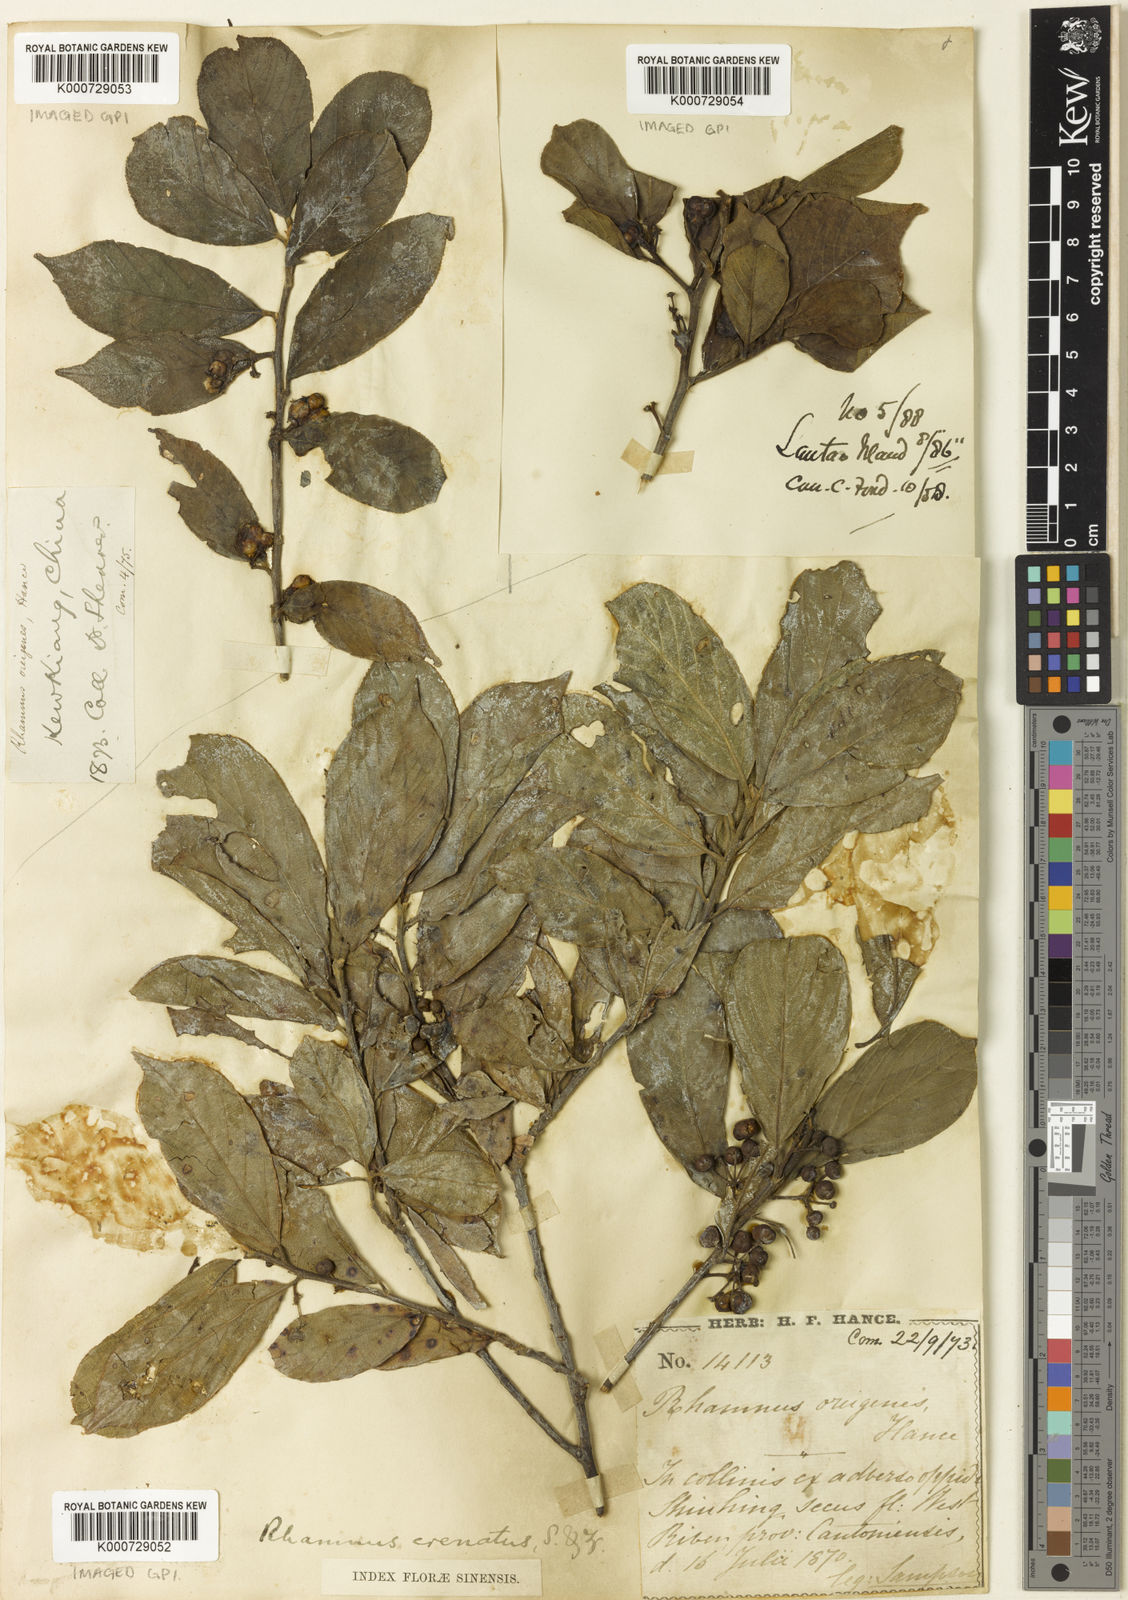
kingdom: Plantae
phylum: Tracheophyta
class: Magnoliopsida
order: Rosales
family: Rhamnaceae
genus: Frangula
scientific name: Frangula crenata
